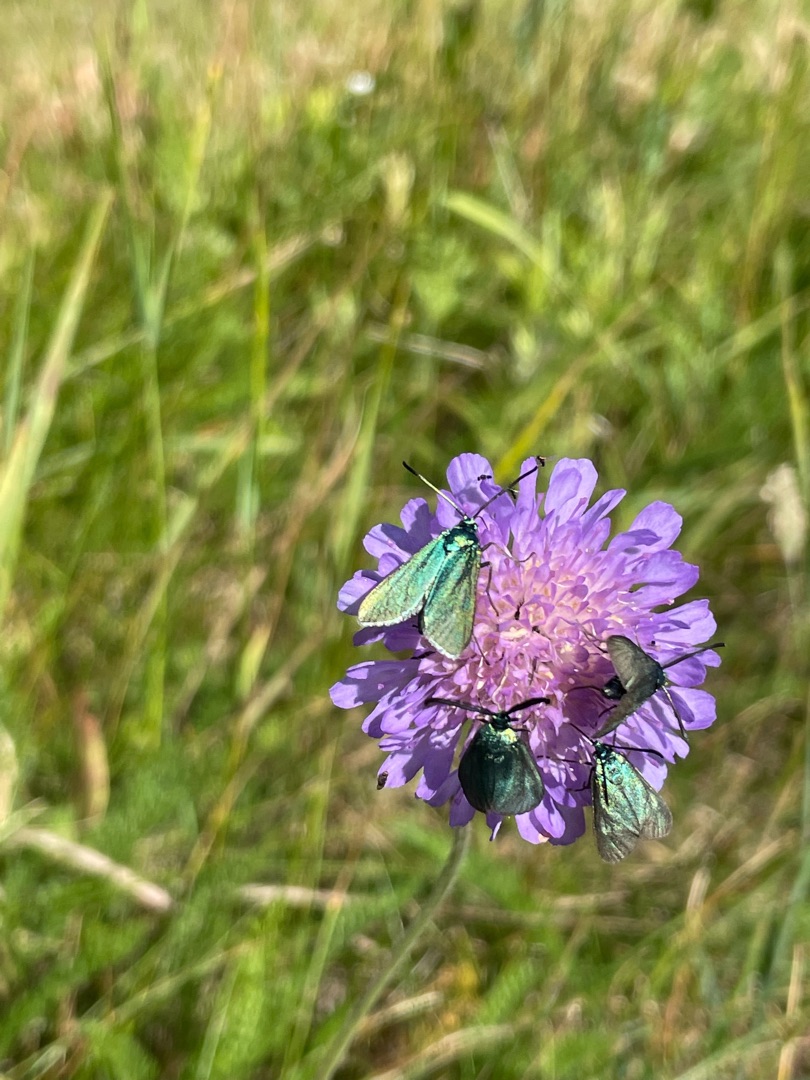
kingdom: Animalia
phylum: Arthropoda
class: Insecta
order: Lepidoptera
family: Zygaenidae
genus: Adscita
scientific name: Adscita statices
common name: Metalvinge
